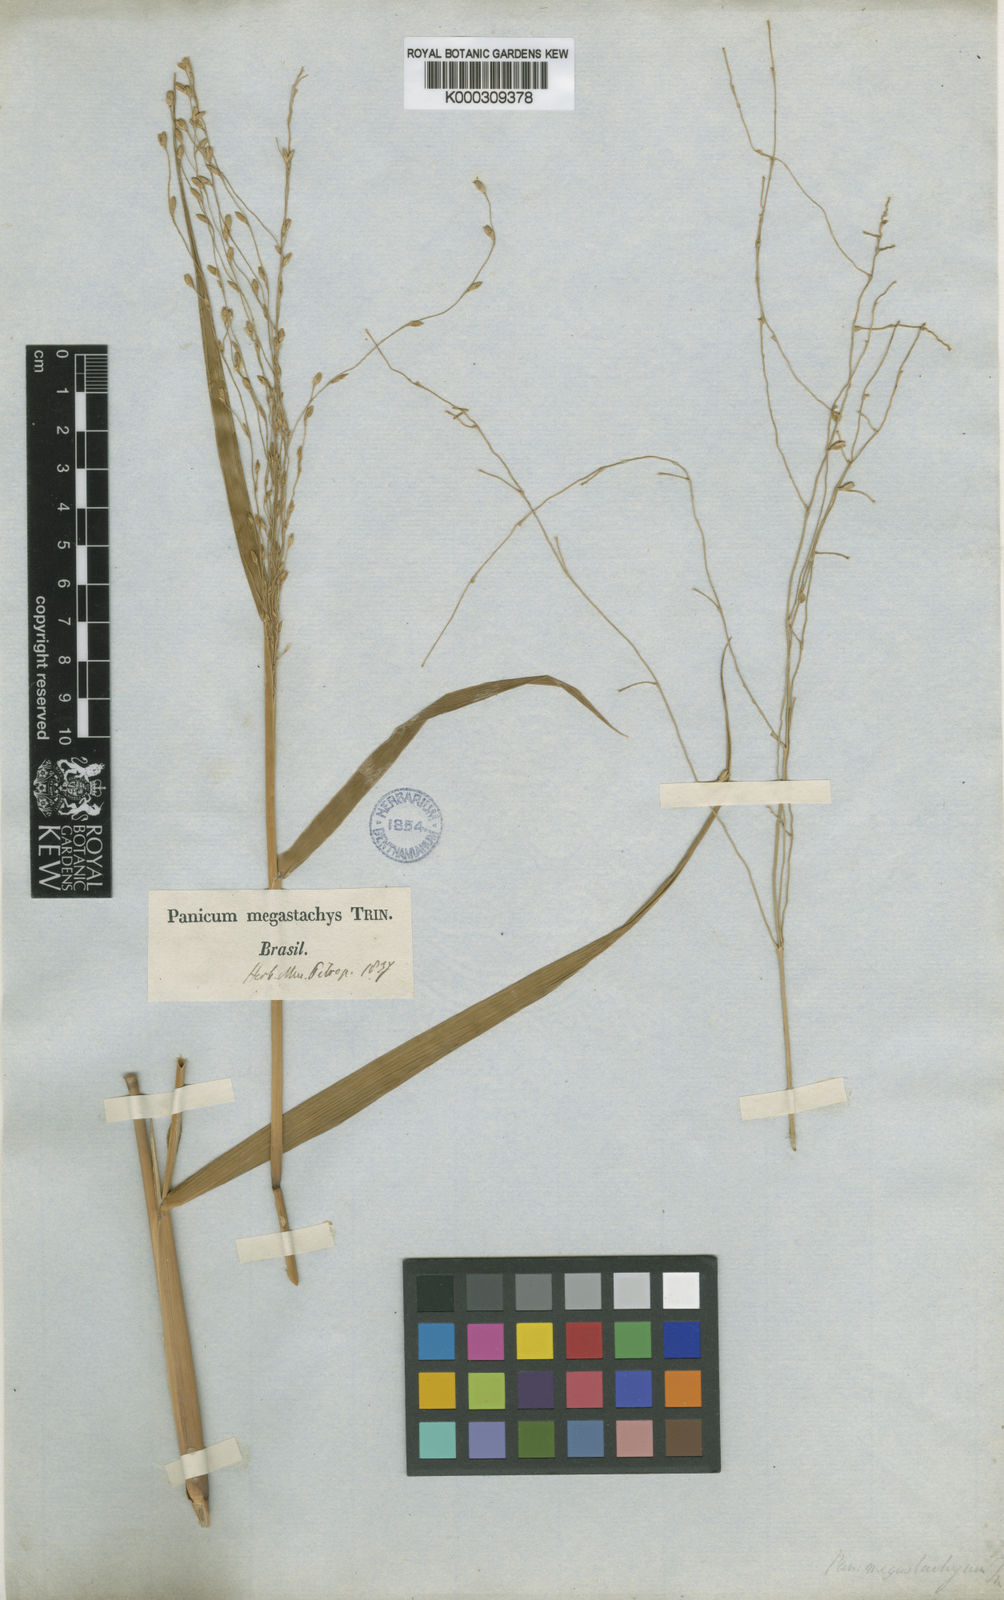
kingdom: Plantae
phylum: Tracheophyta
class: Liliopsida
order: Poales
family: Poaceae
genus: Urochloa
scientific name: Urochloa megastachya
